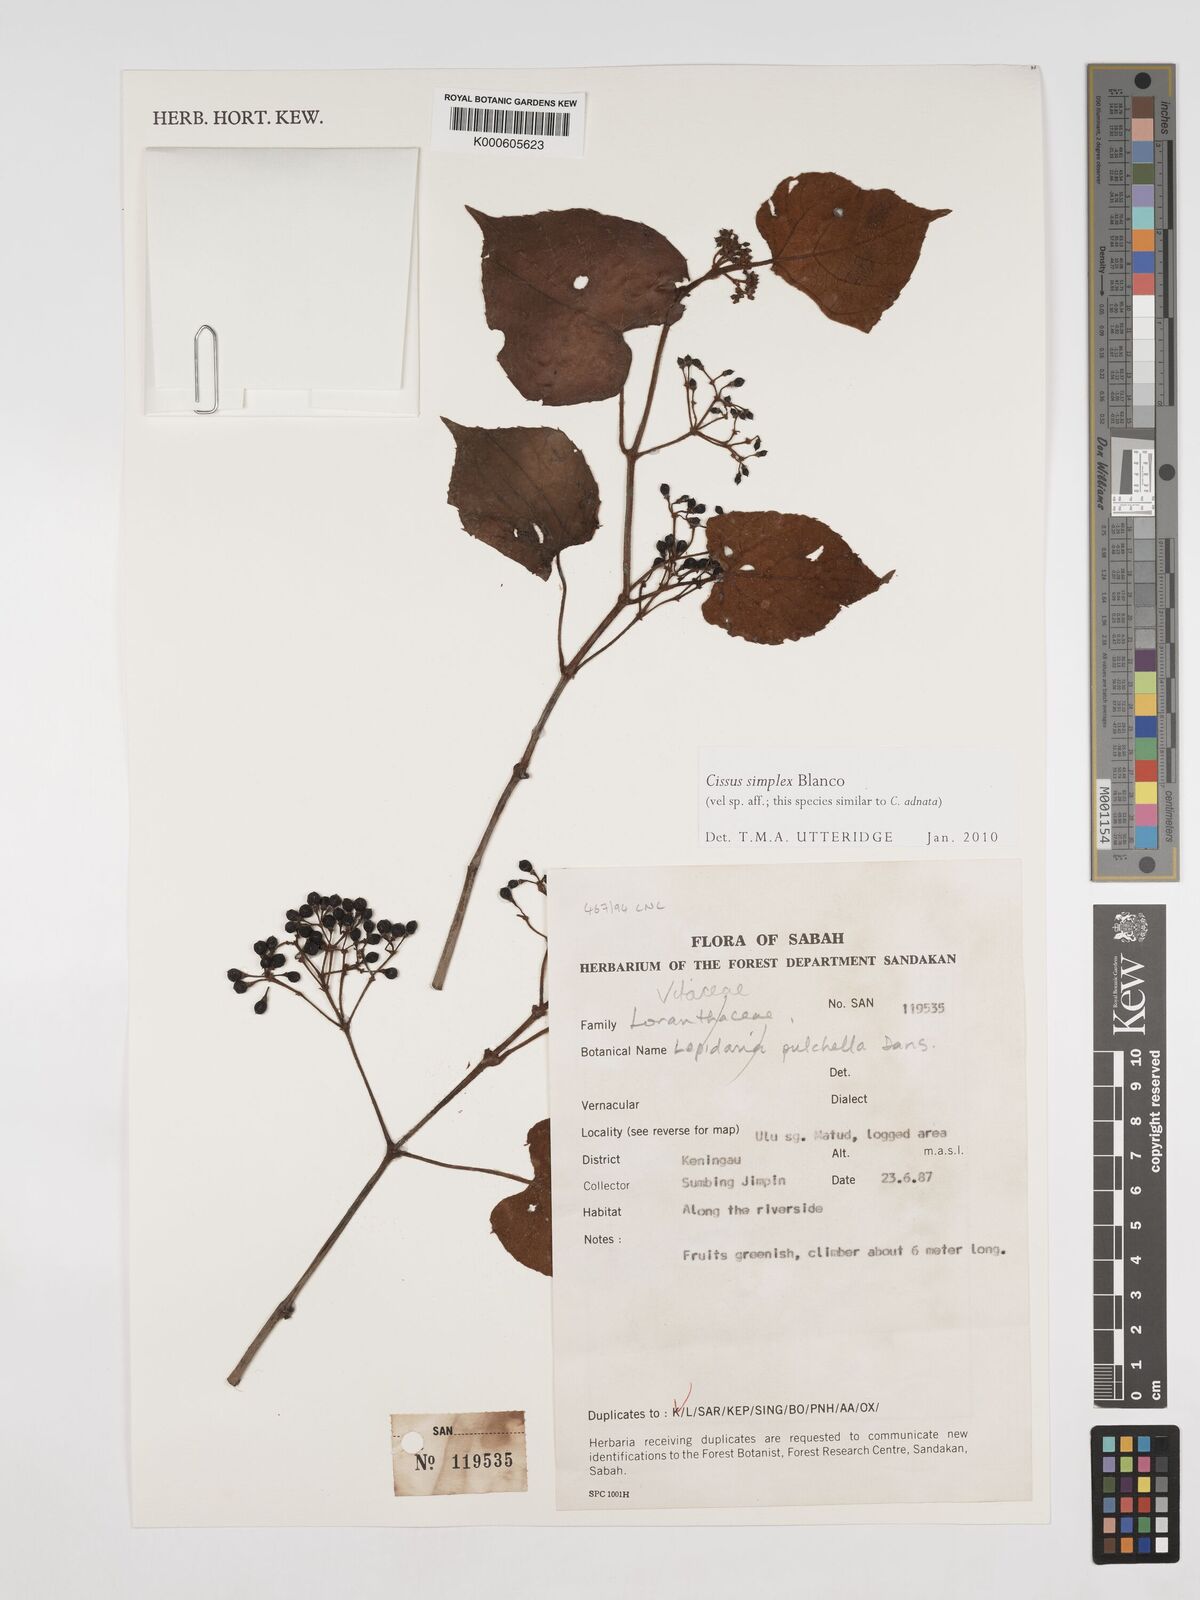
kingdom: Plantae
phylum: Tracheophyta
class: Magnoliopsida
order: Vitales
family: Vitaceae
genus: Cissus
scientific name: Cissus aristata
